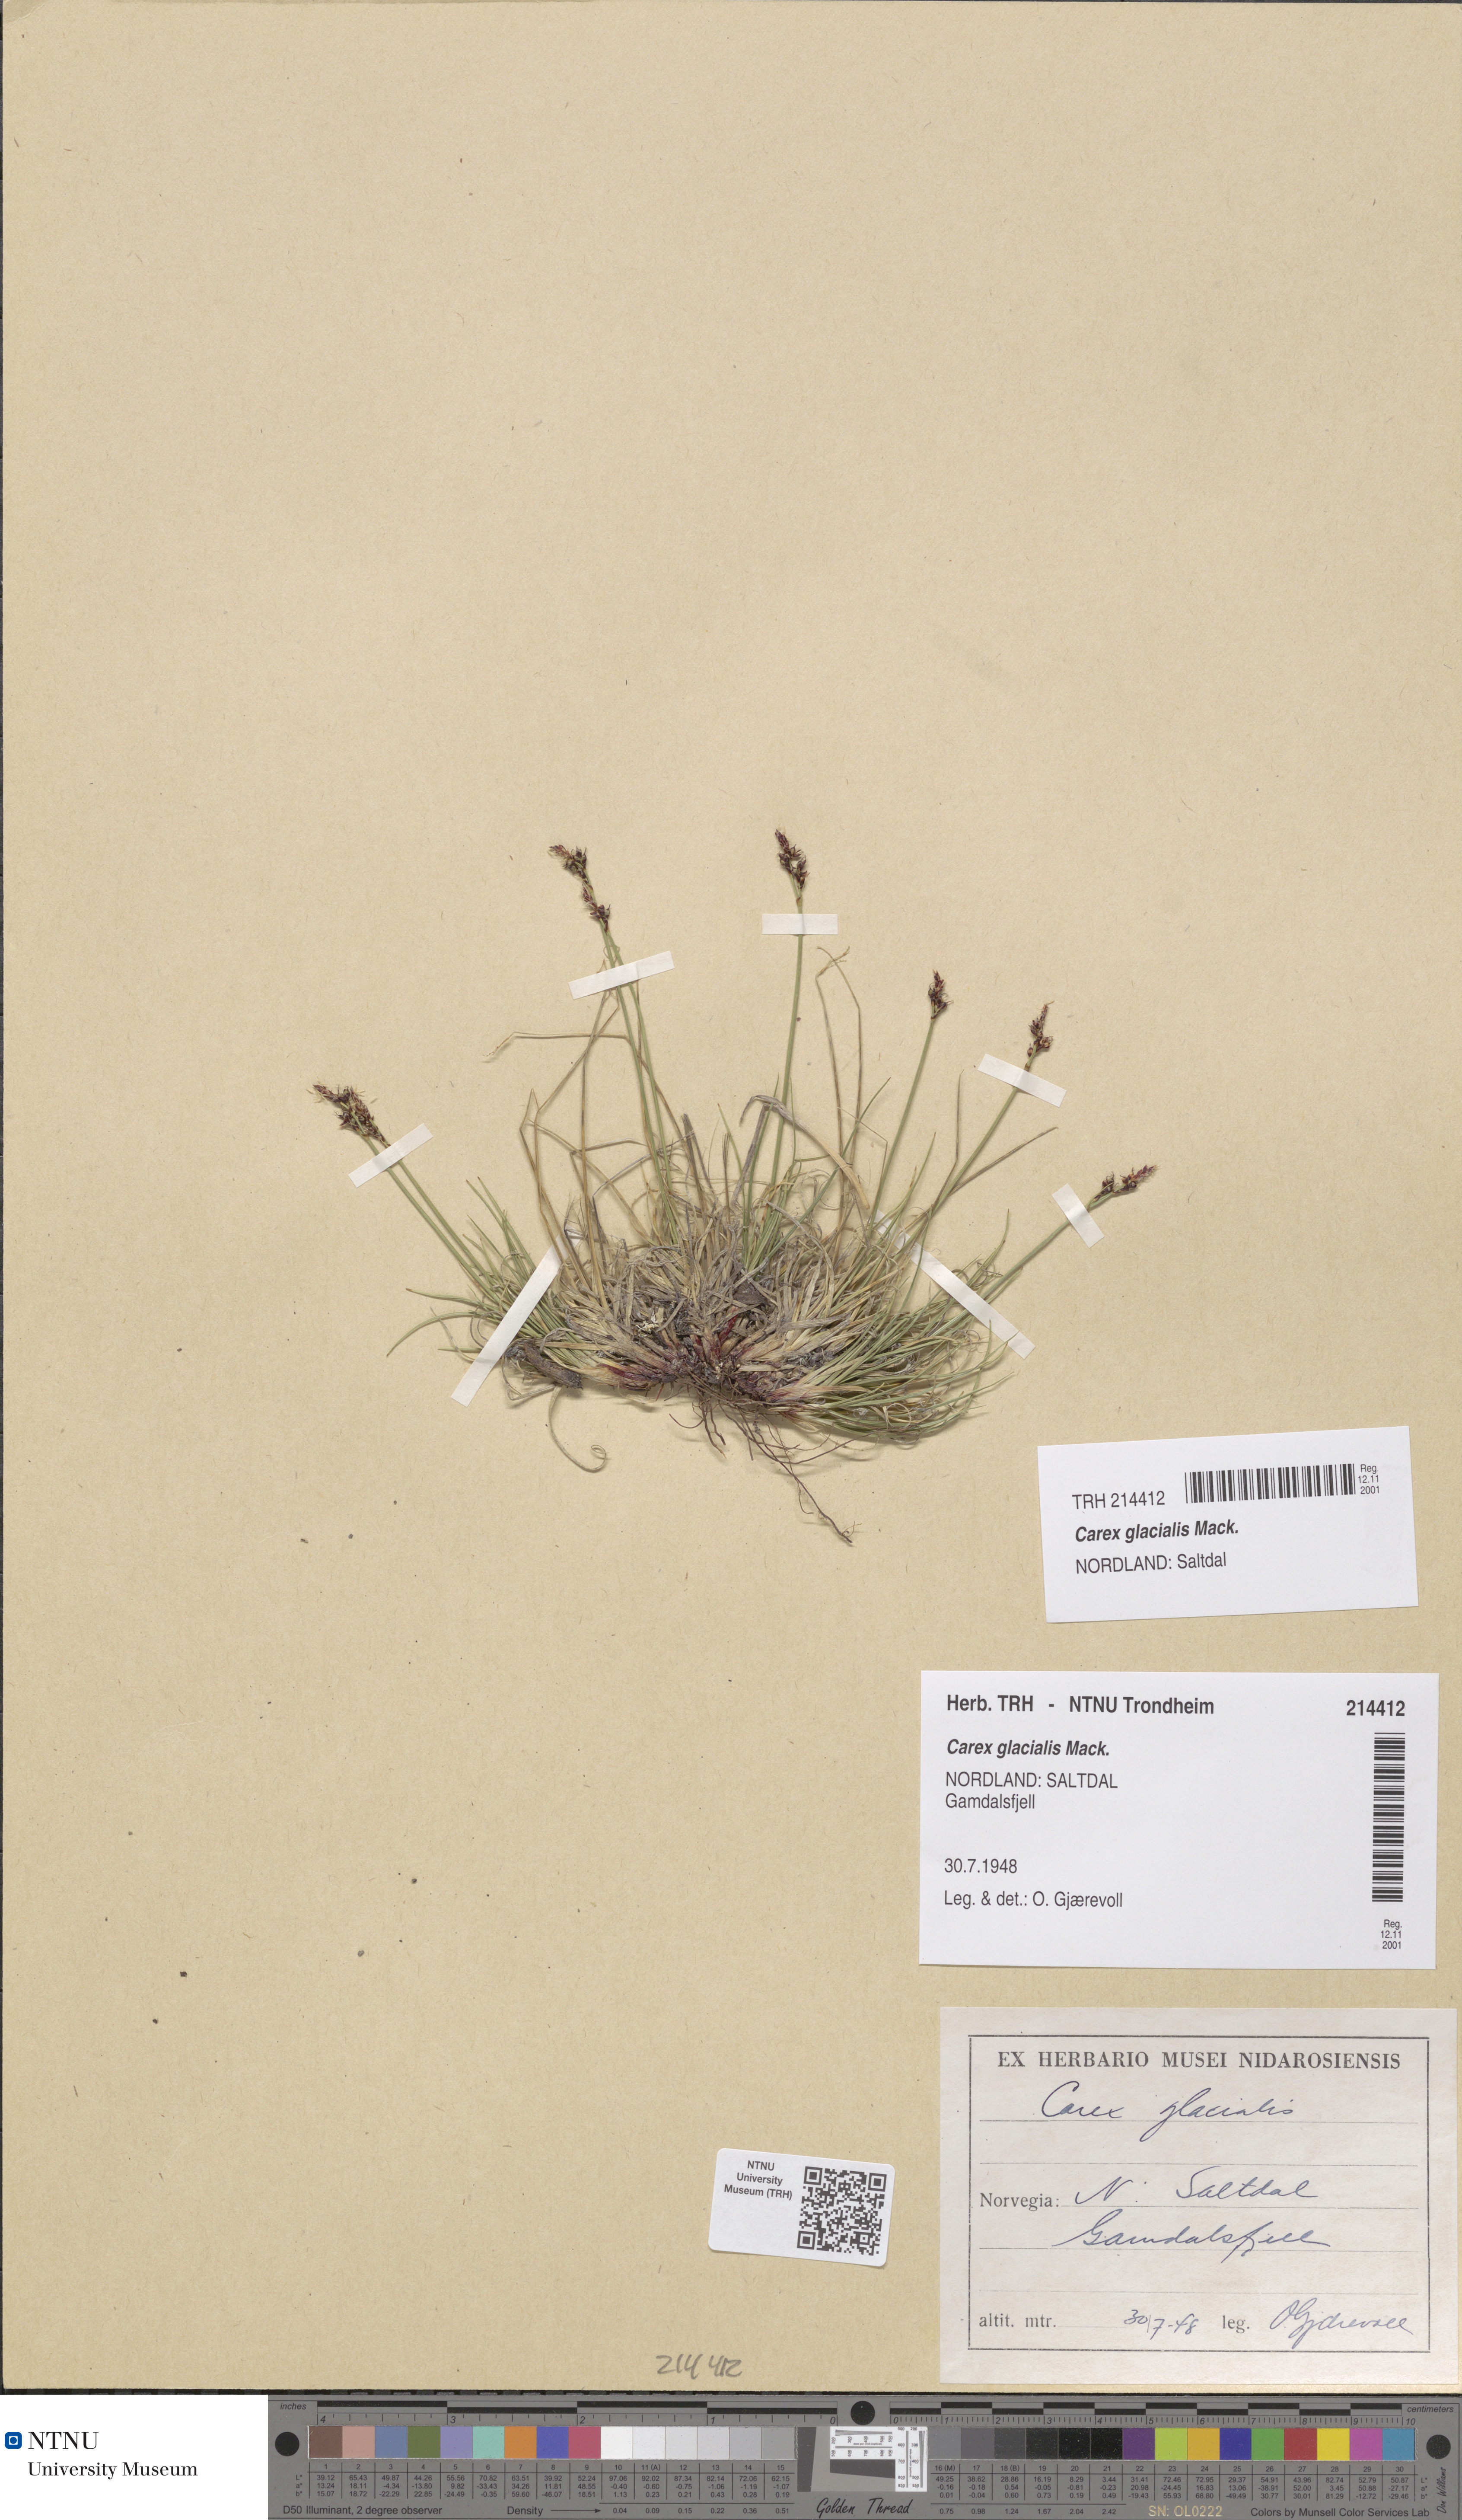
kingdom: Plantae
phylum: Tracheophyta
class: Liliopsida
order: Poales
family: Cyperaceae
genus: Carex
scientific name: Carex glacialis
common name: Newfoundland sedge
